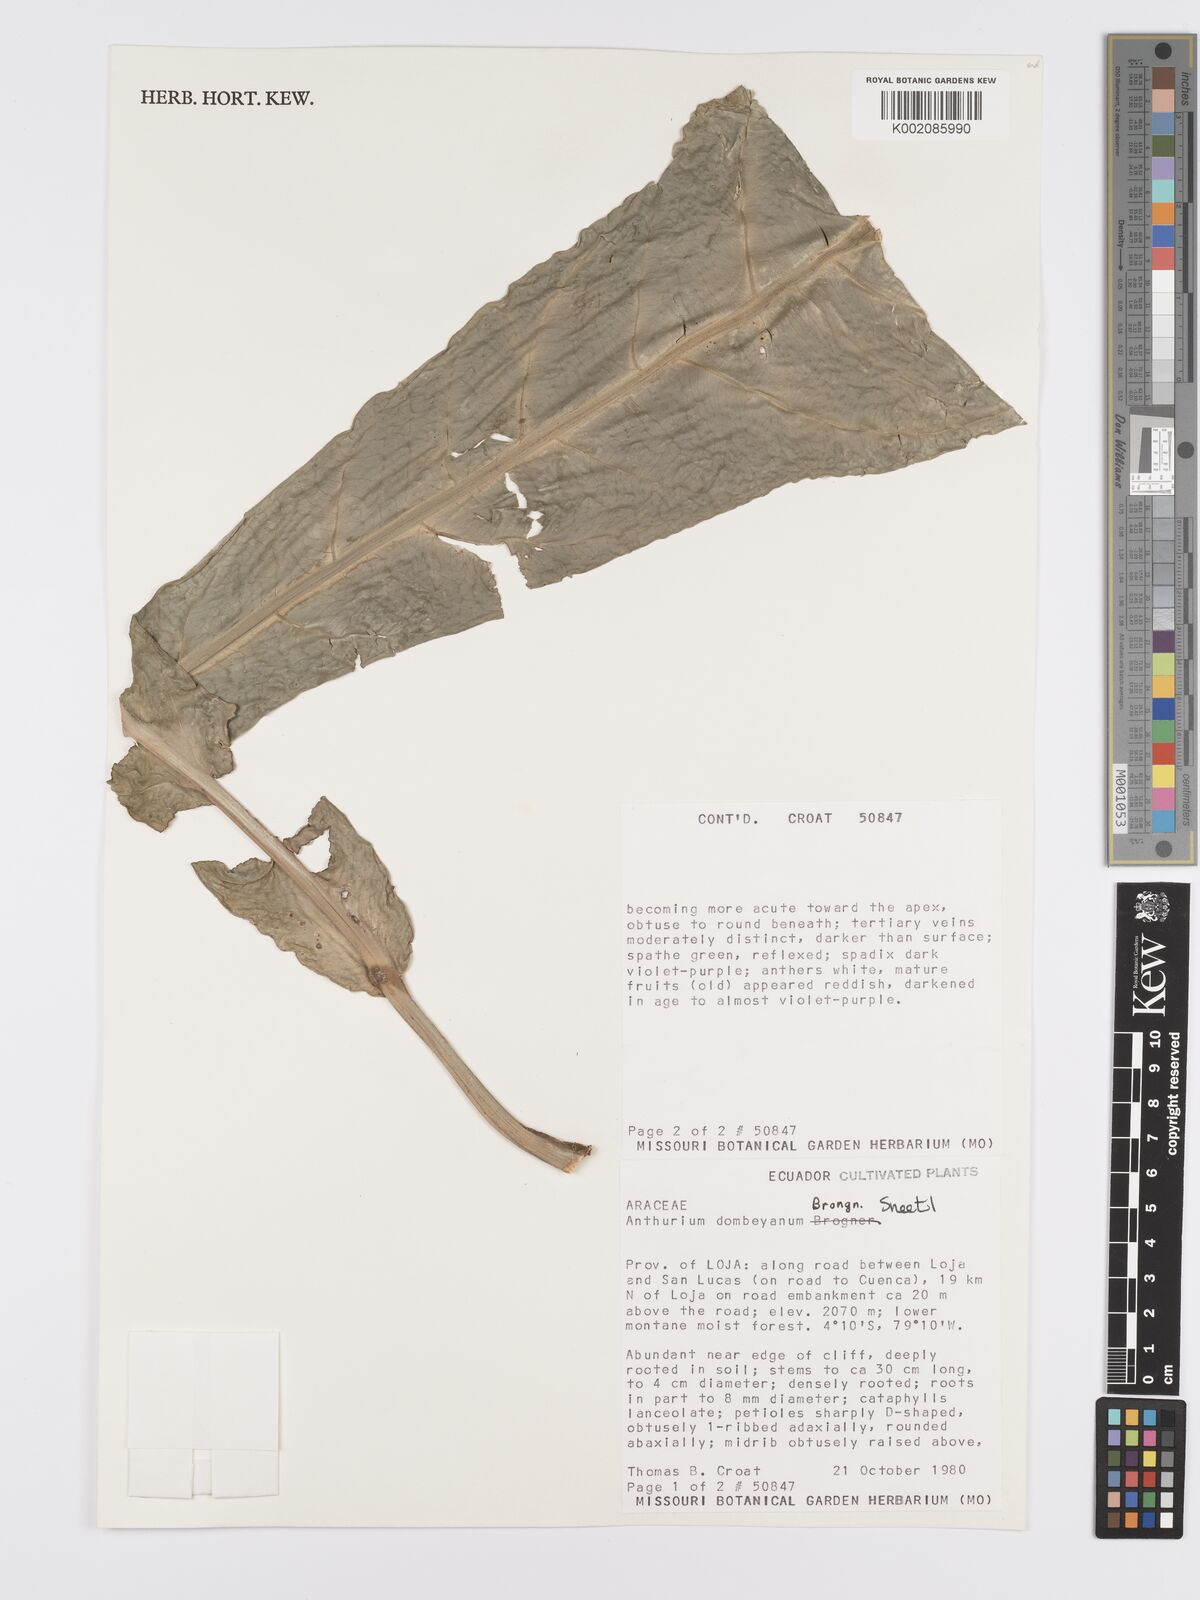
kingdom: Plantae
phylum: Tracheophyta
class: Liliopsida
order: Alismatales
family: Araceae
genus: Anthurium
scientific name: Anthurium dombeyanum
